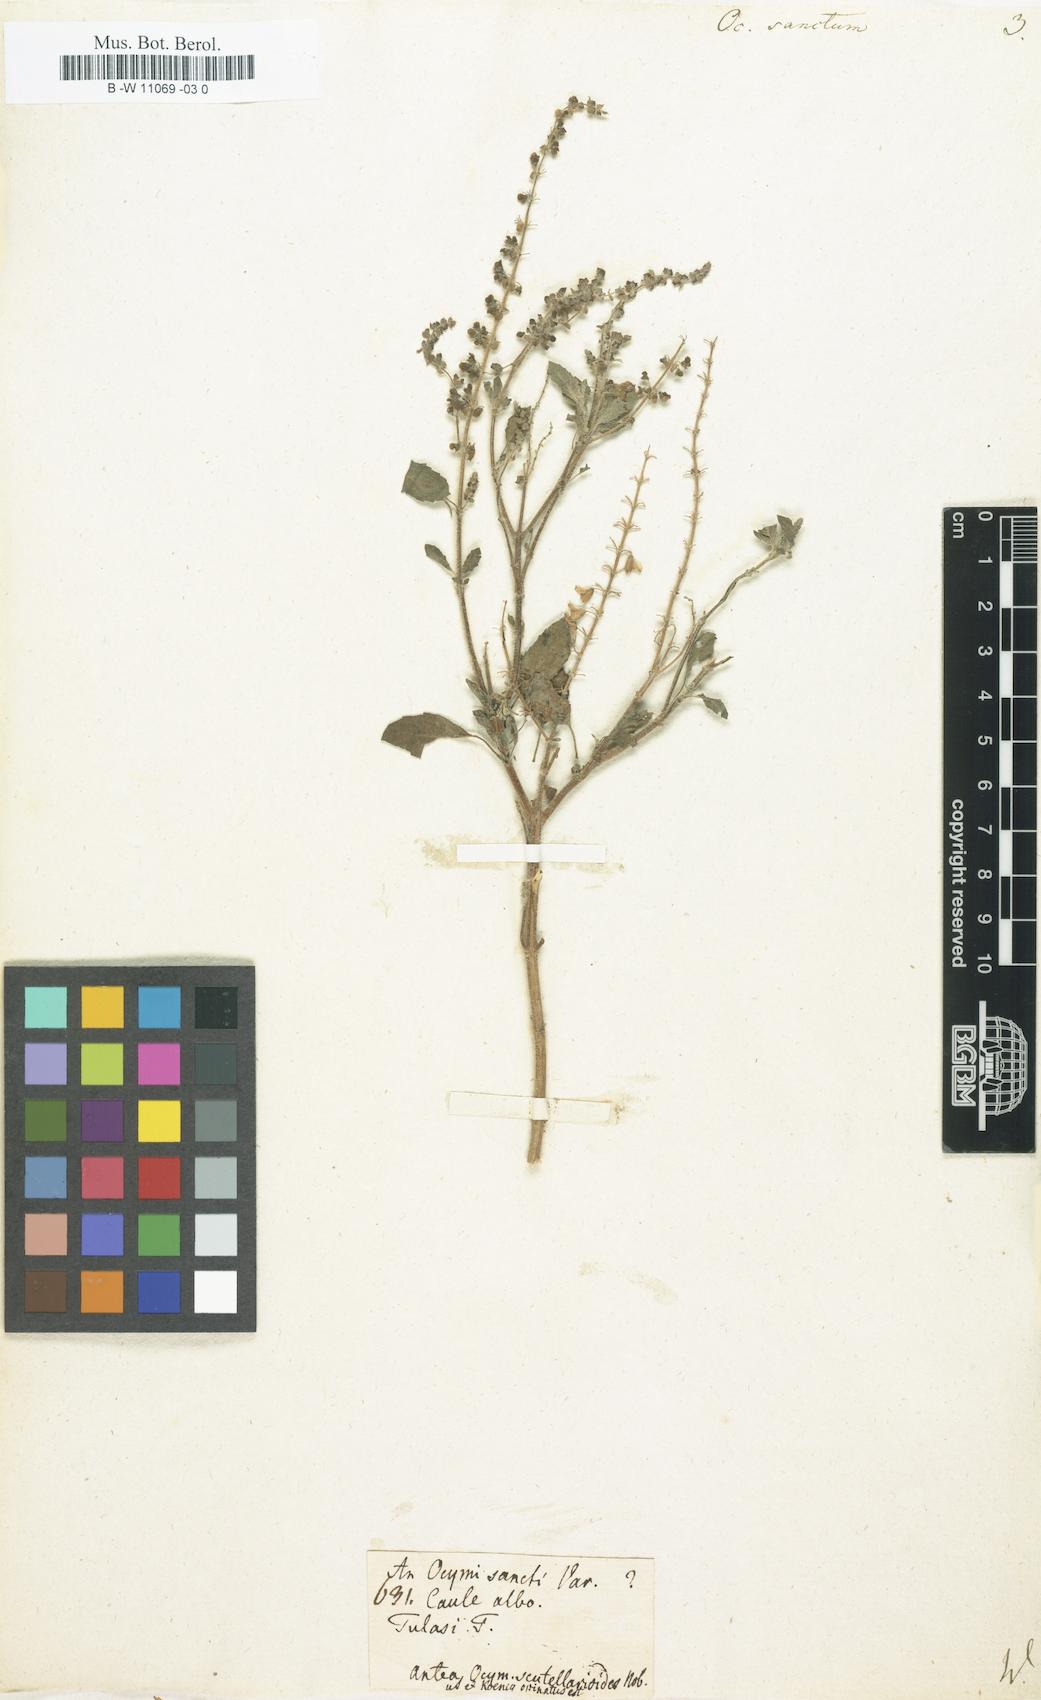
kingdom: Plantae
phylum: Tracheophyta
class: Magnoliopsida
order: Lamiales
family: Lamiaceae
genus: Ocimum
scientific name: Ocimum tenuiflorum
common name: Sacred basil
